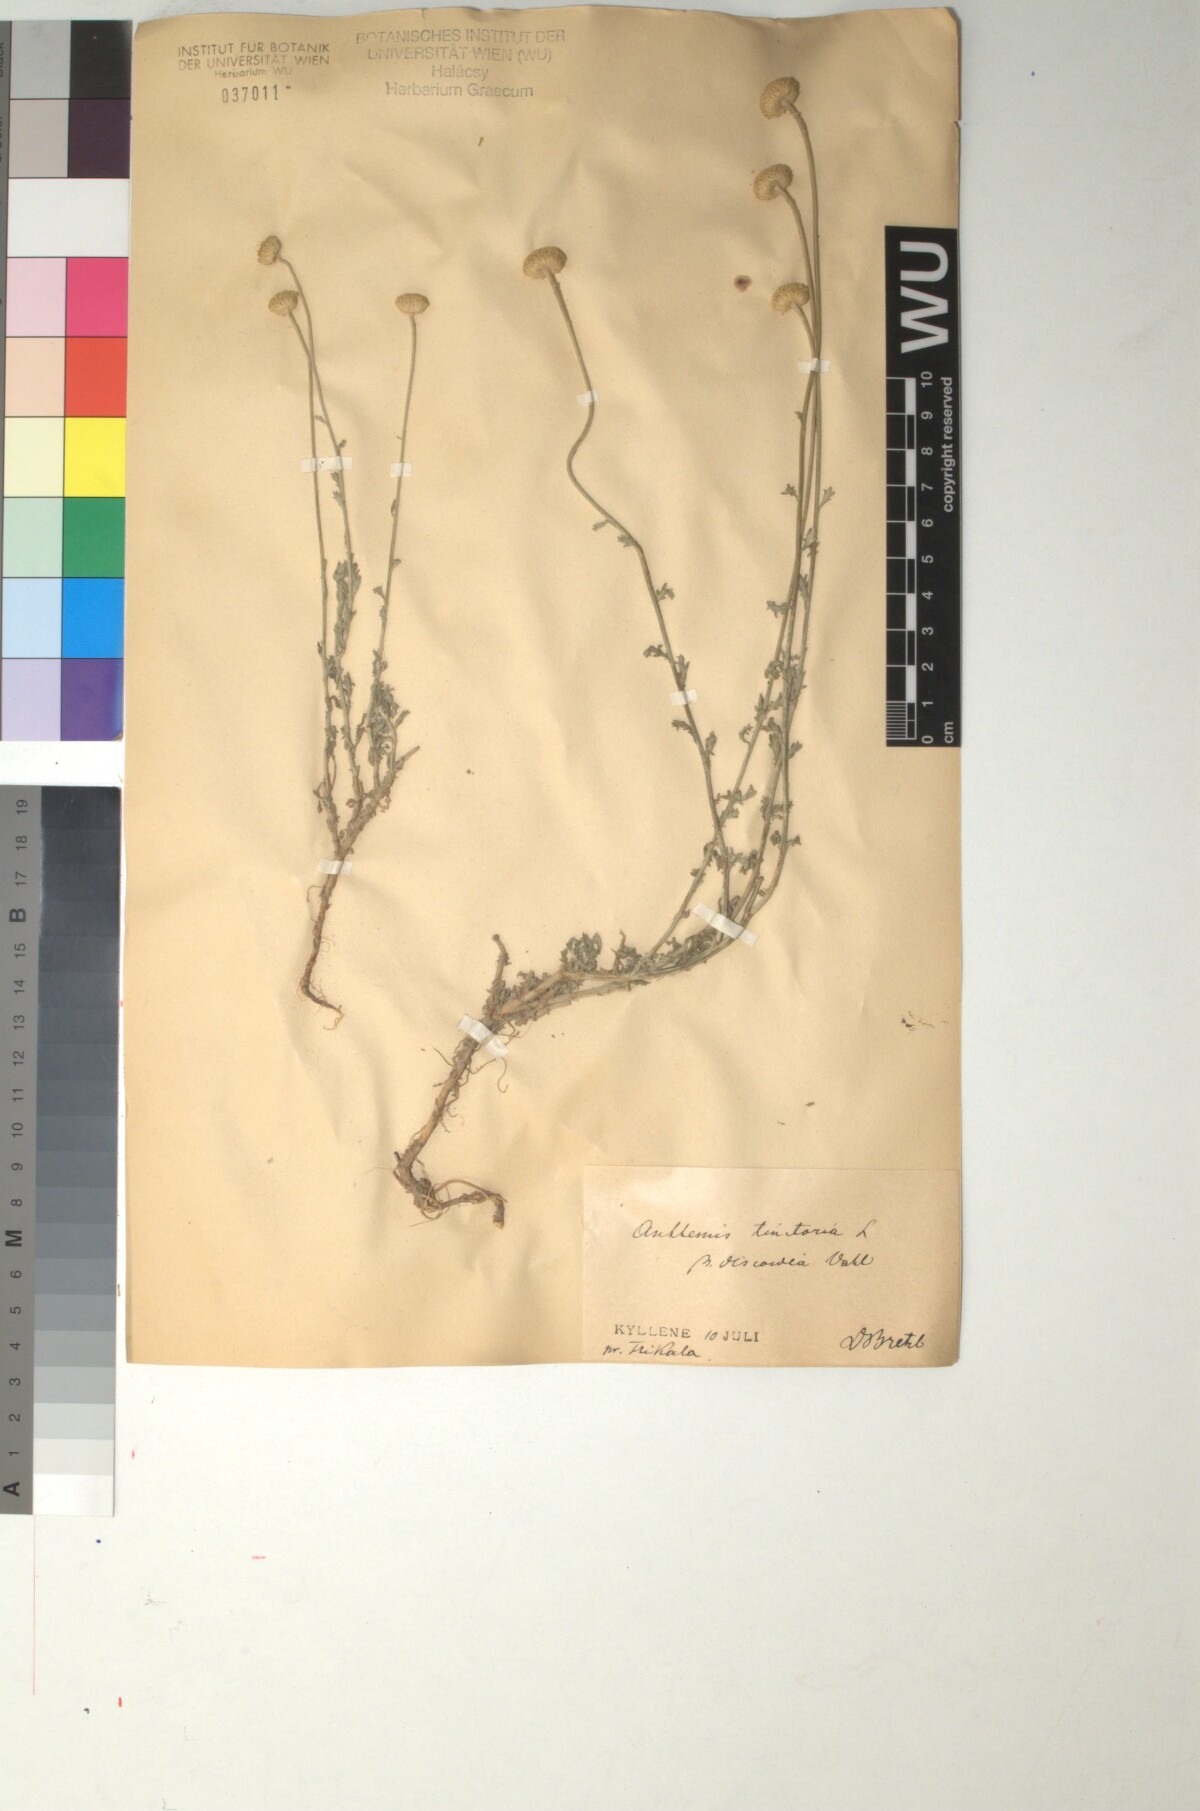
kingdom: Plantae
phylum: Tracheophyta
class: Magnoliopsida
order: Asterales
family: Asteraceae
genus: Cota
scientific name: Cota tinctoria
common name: Golden chamomile
